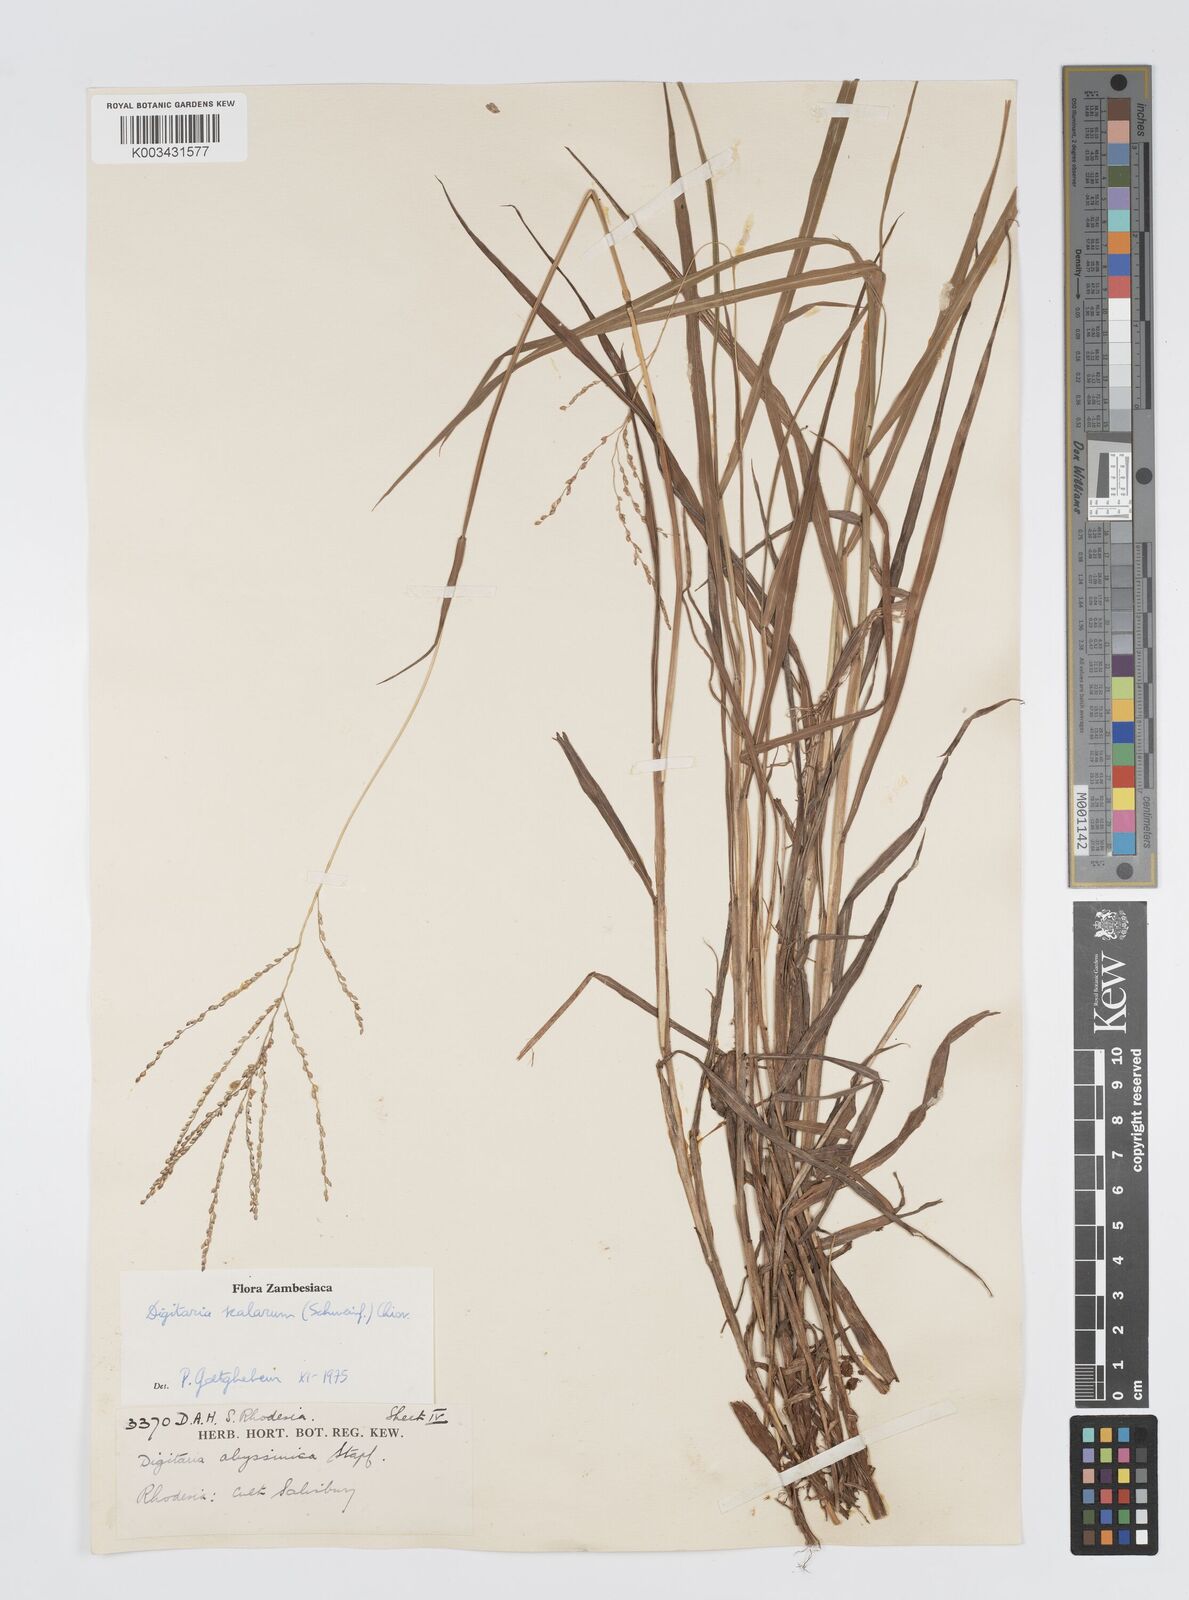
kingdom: Plantae
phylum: Tracheophyta
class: Liliopsida
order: Poales
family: Poaceae
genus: Digitaria
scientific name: Digitaria abyssinica
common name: African couchgrass
